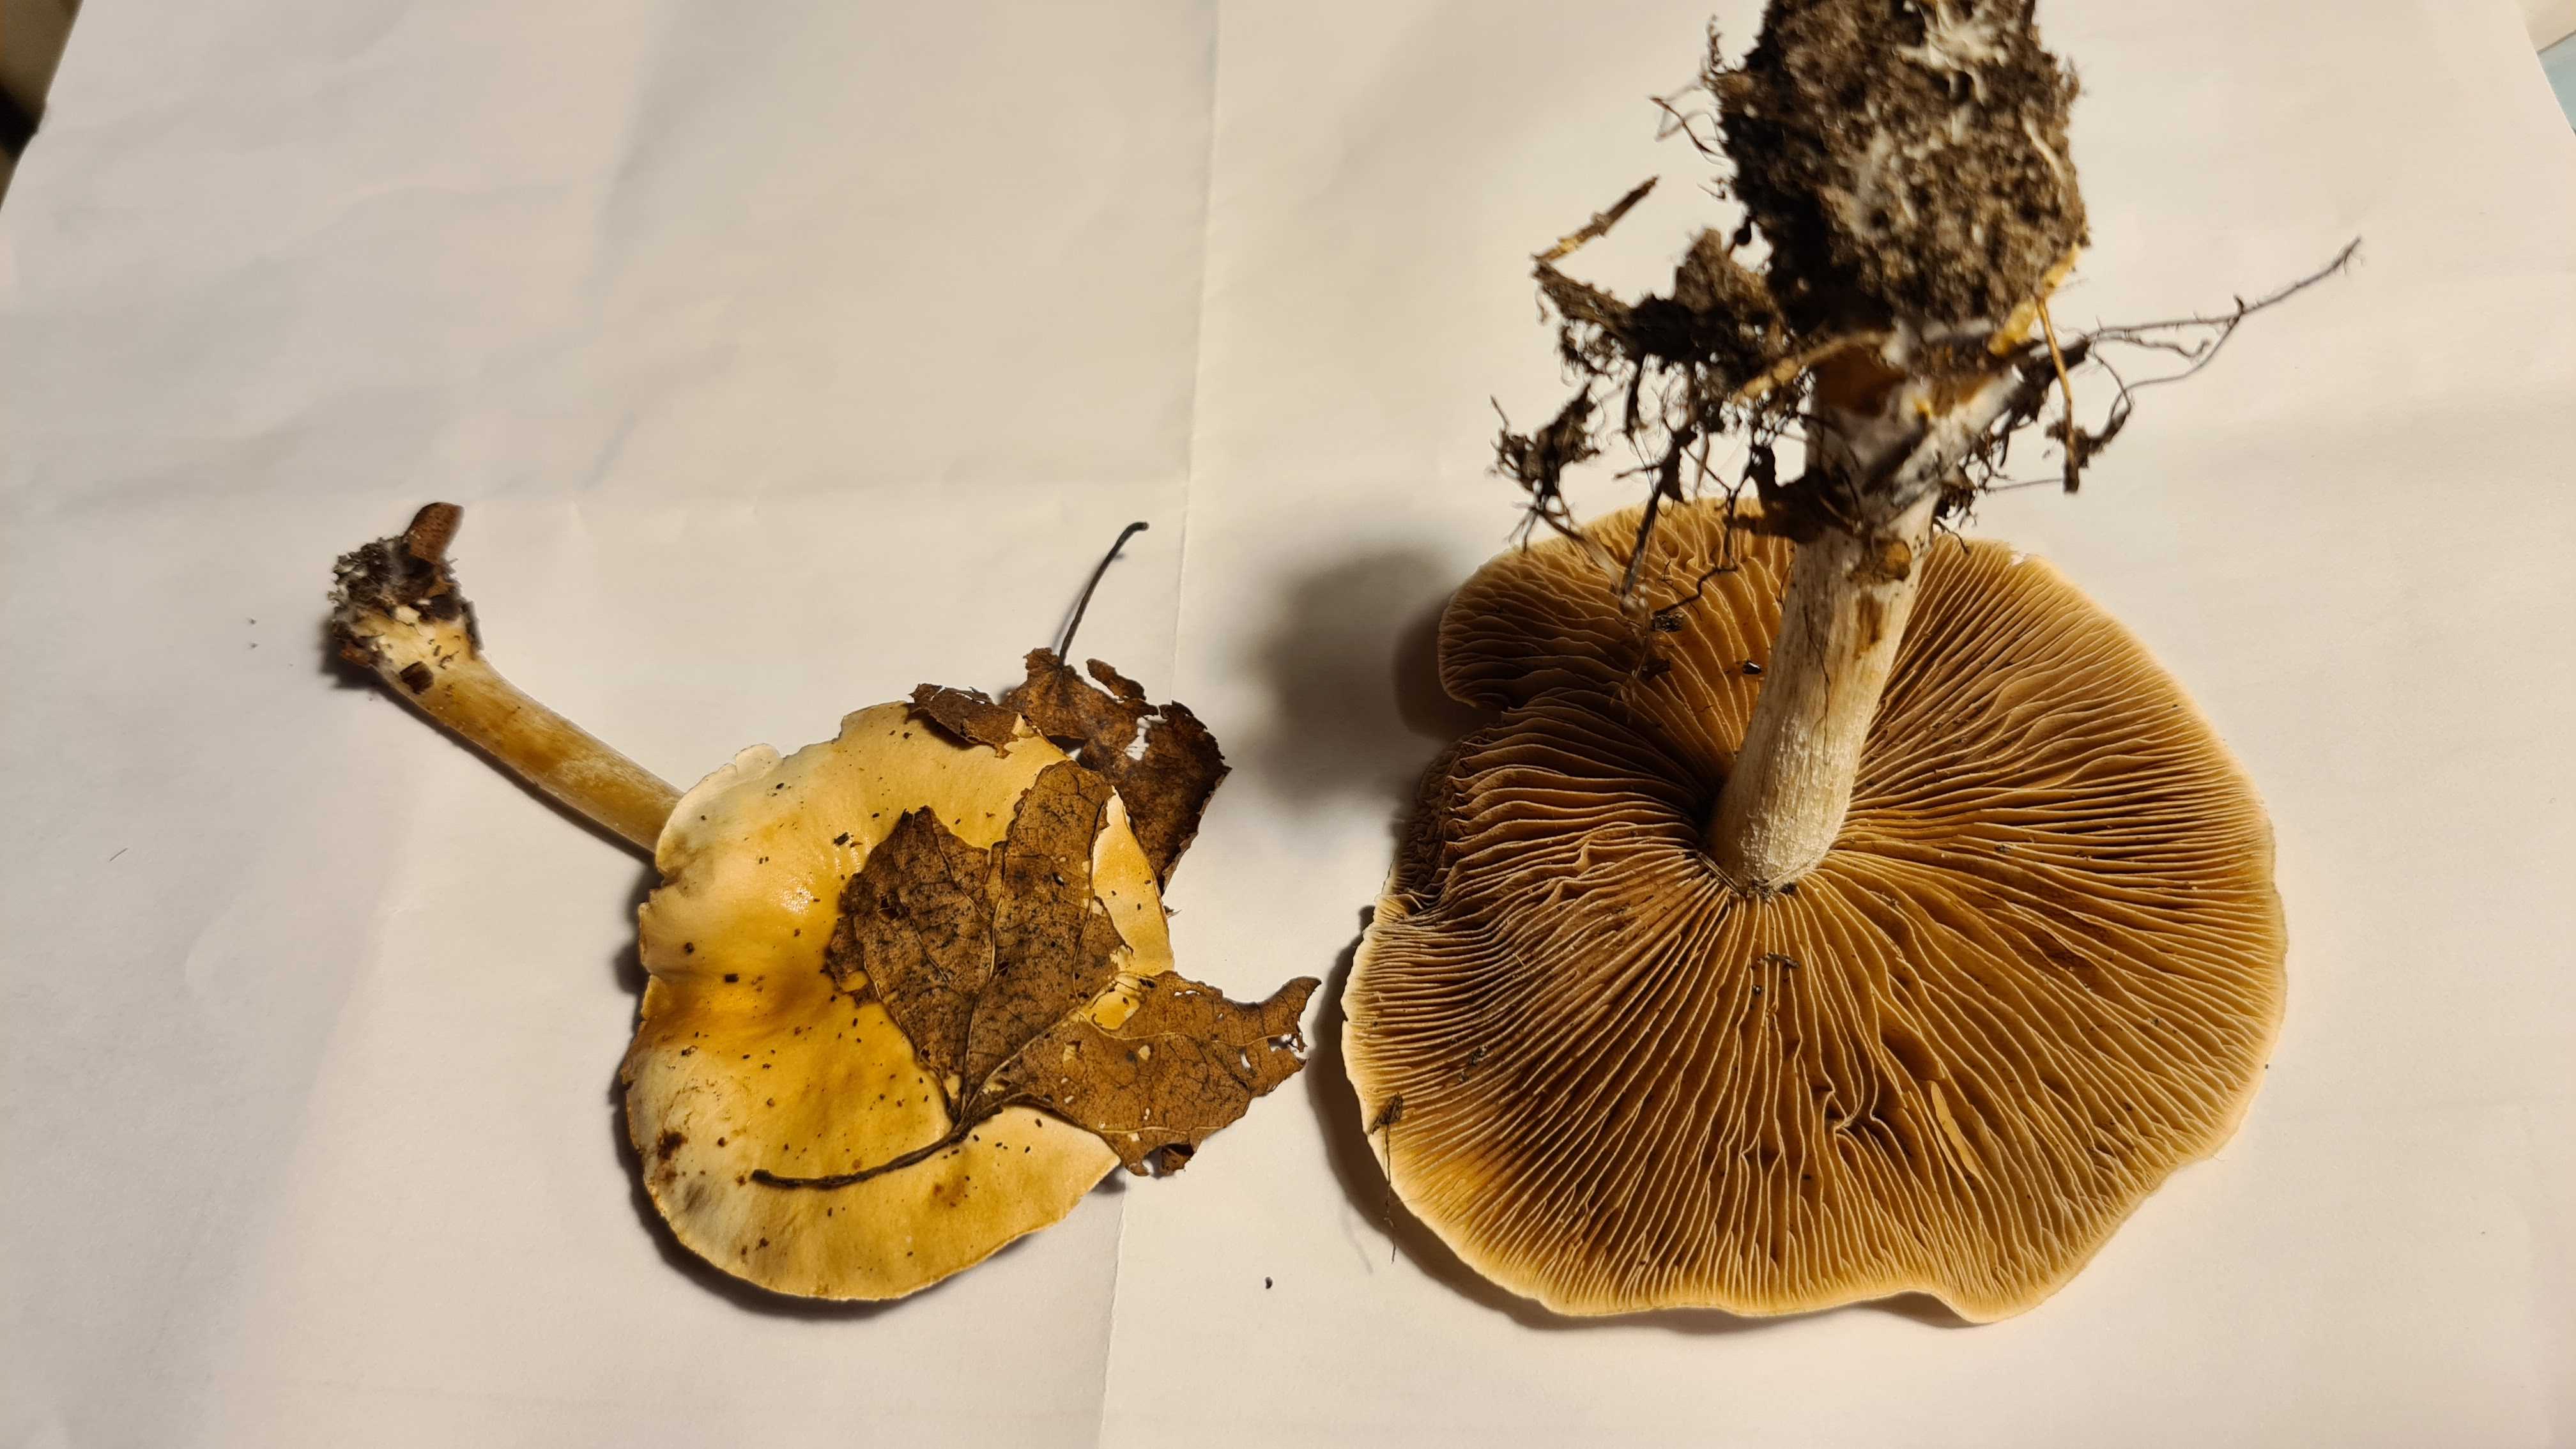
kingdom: Fungi
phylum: Basidiomycota
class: Agaricomycetes
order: Agaricales
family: Hymenogastraceae
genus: Hebeloma
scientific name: Hebeloma
